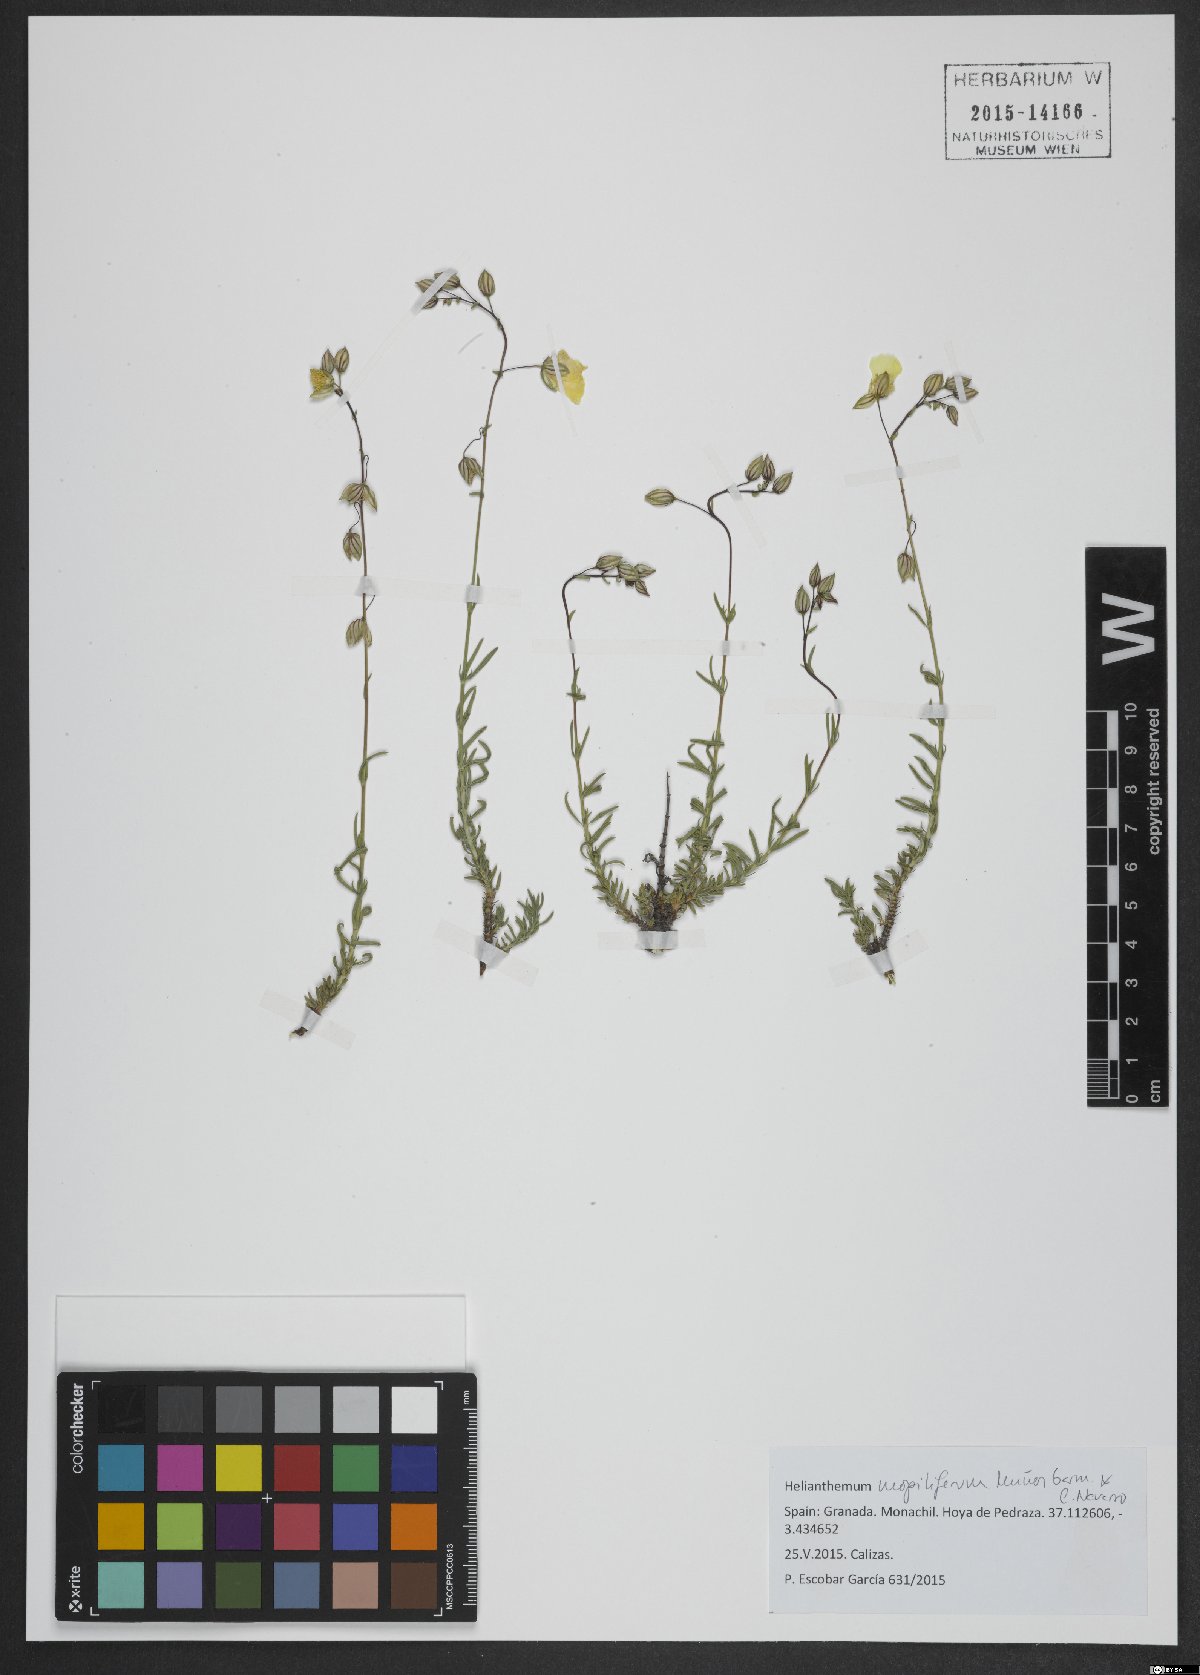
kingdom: Plantae
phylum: Tracheophyta
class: Magnoliopsida
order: Malvales
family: Cistaceae
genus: Helianthemum
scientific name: Helianthemum neopiliferum
